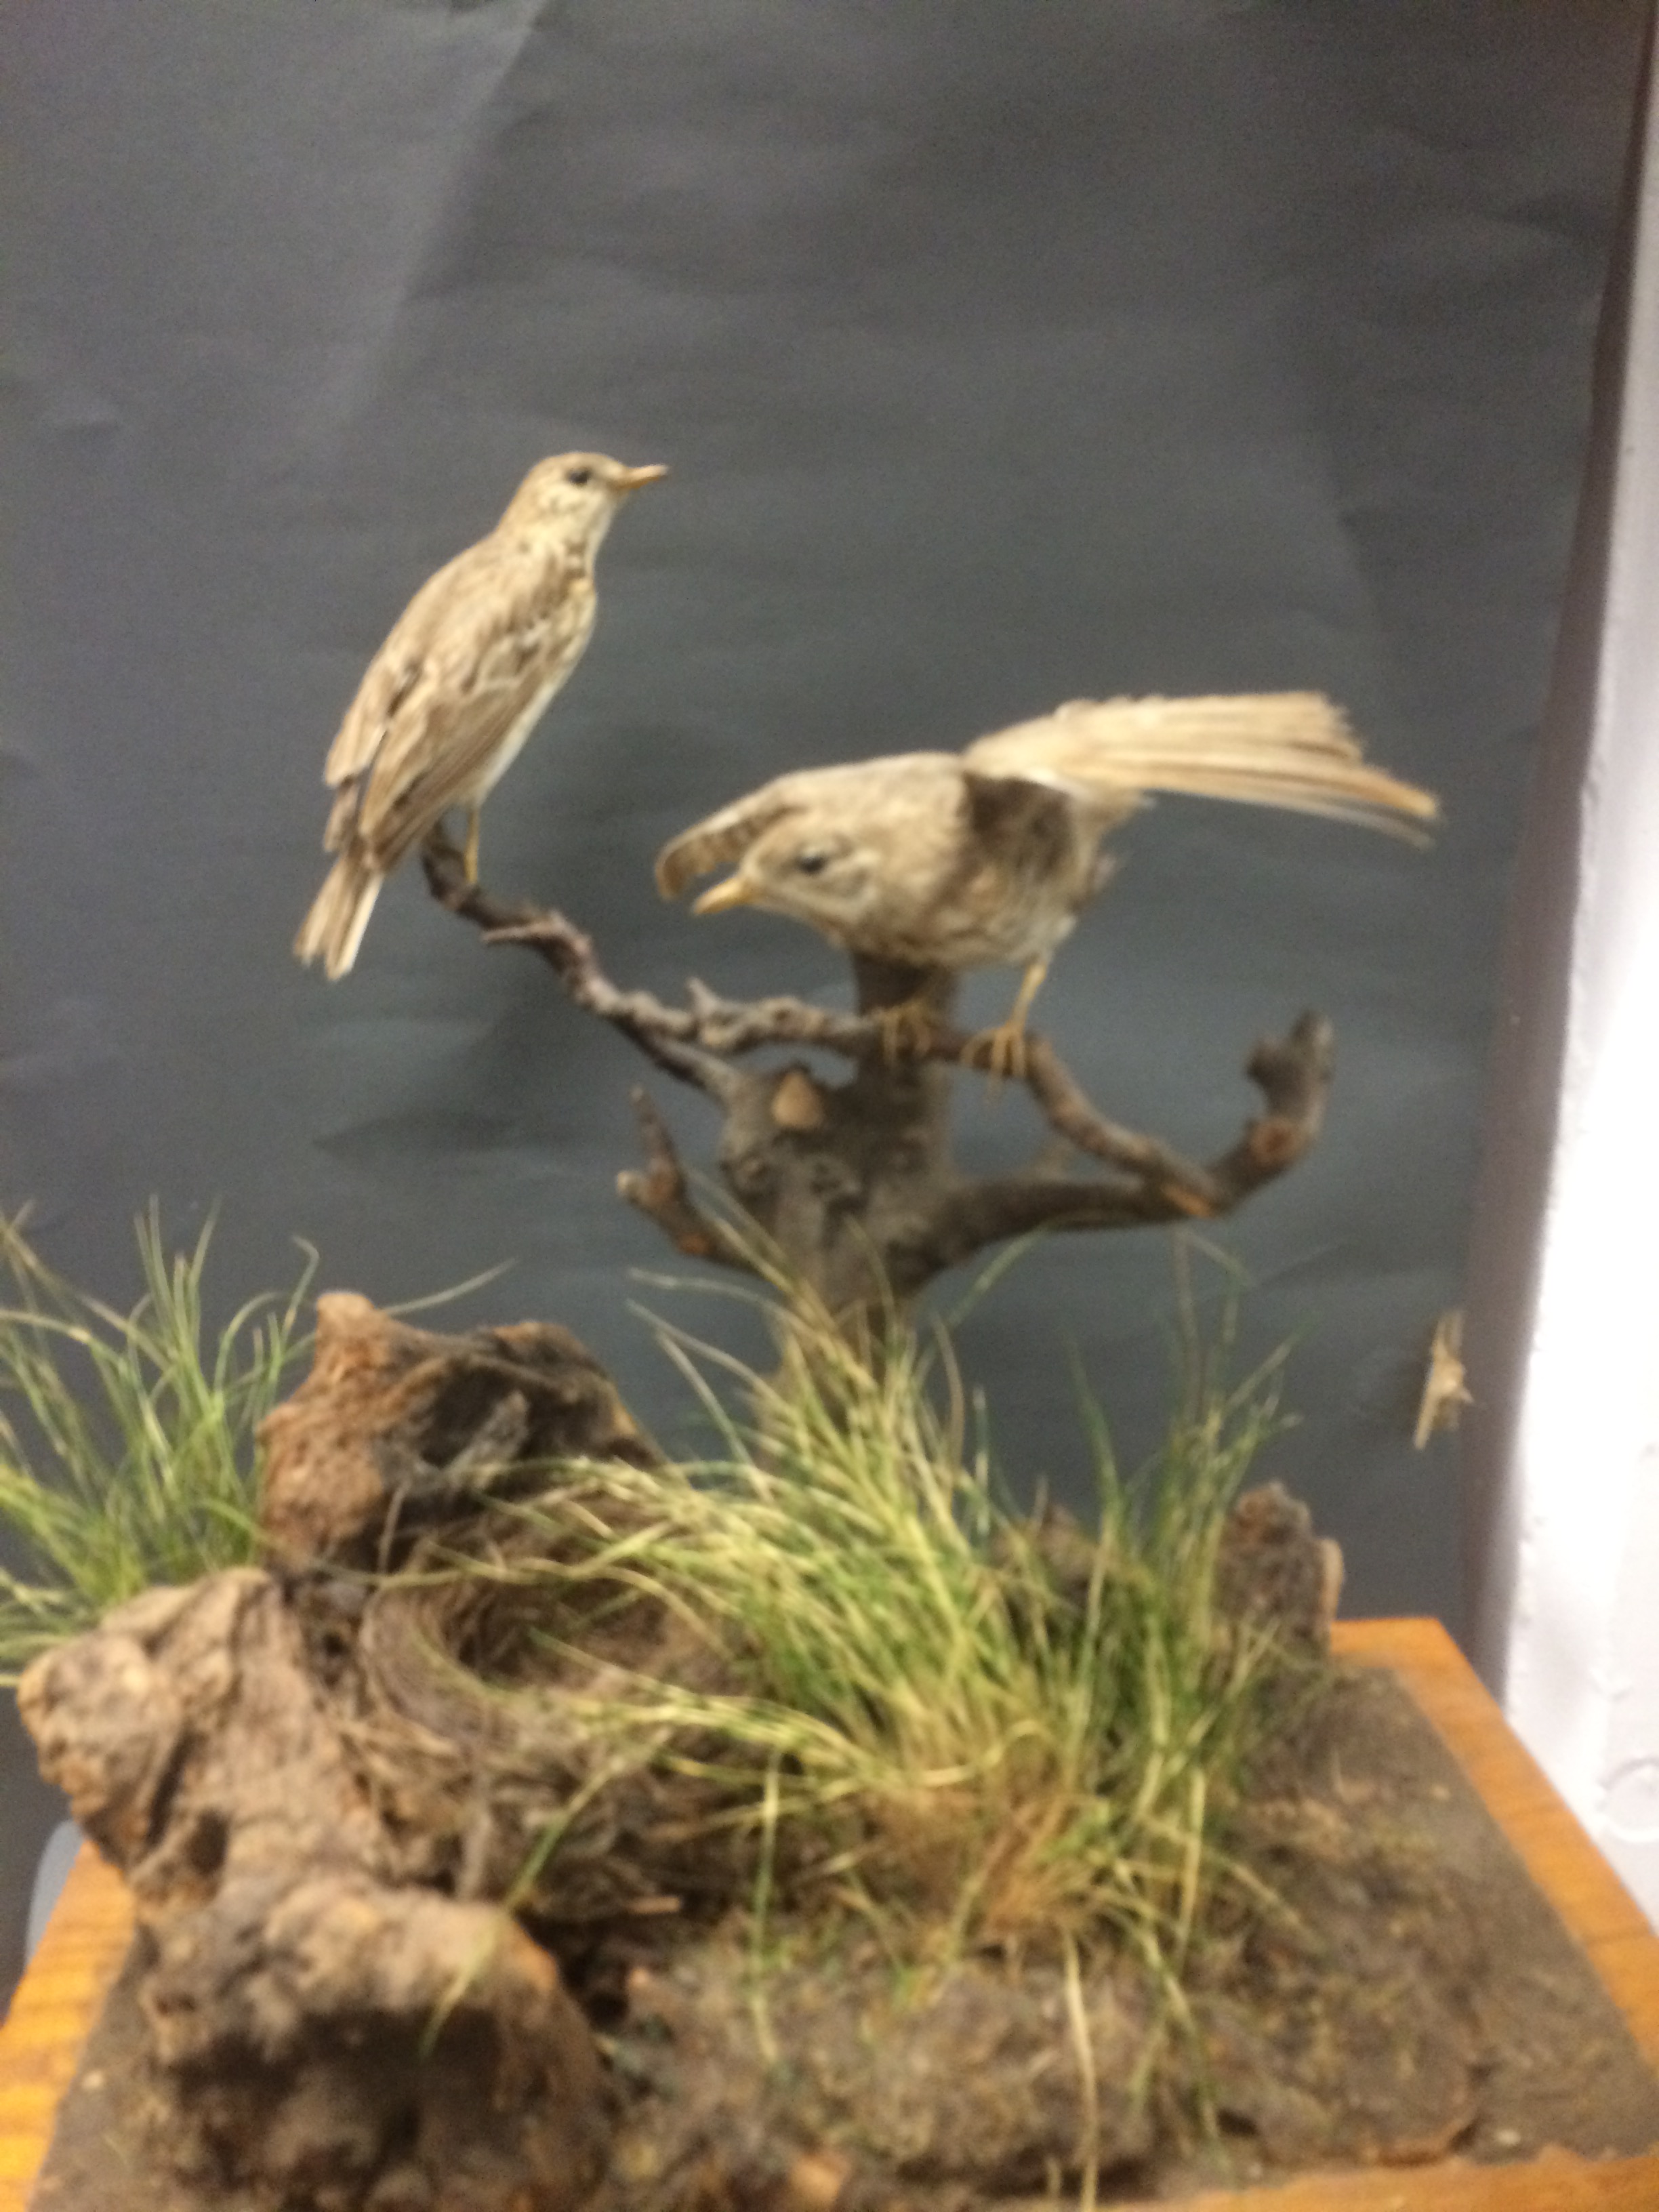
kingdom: Animalia
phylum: Chordata
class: Aves
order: Passeriformes
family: Motacillidae
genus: Anthus
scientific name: Anthus trivialis
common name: Tree pipit
